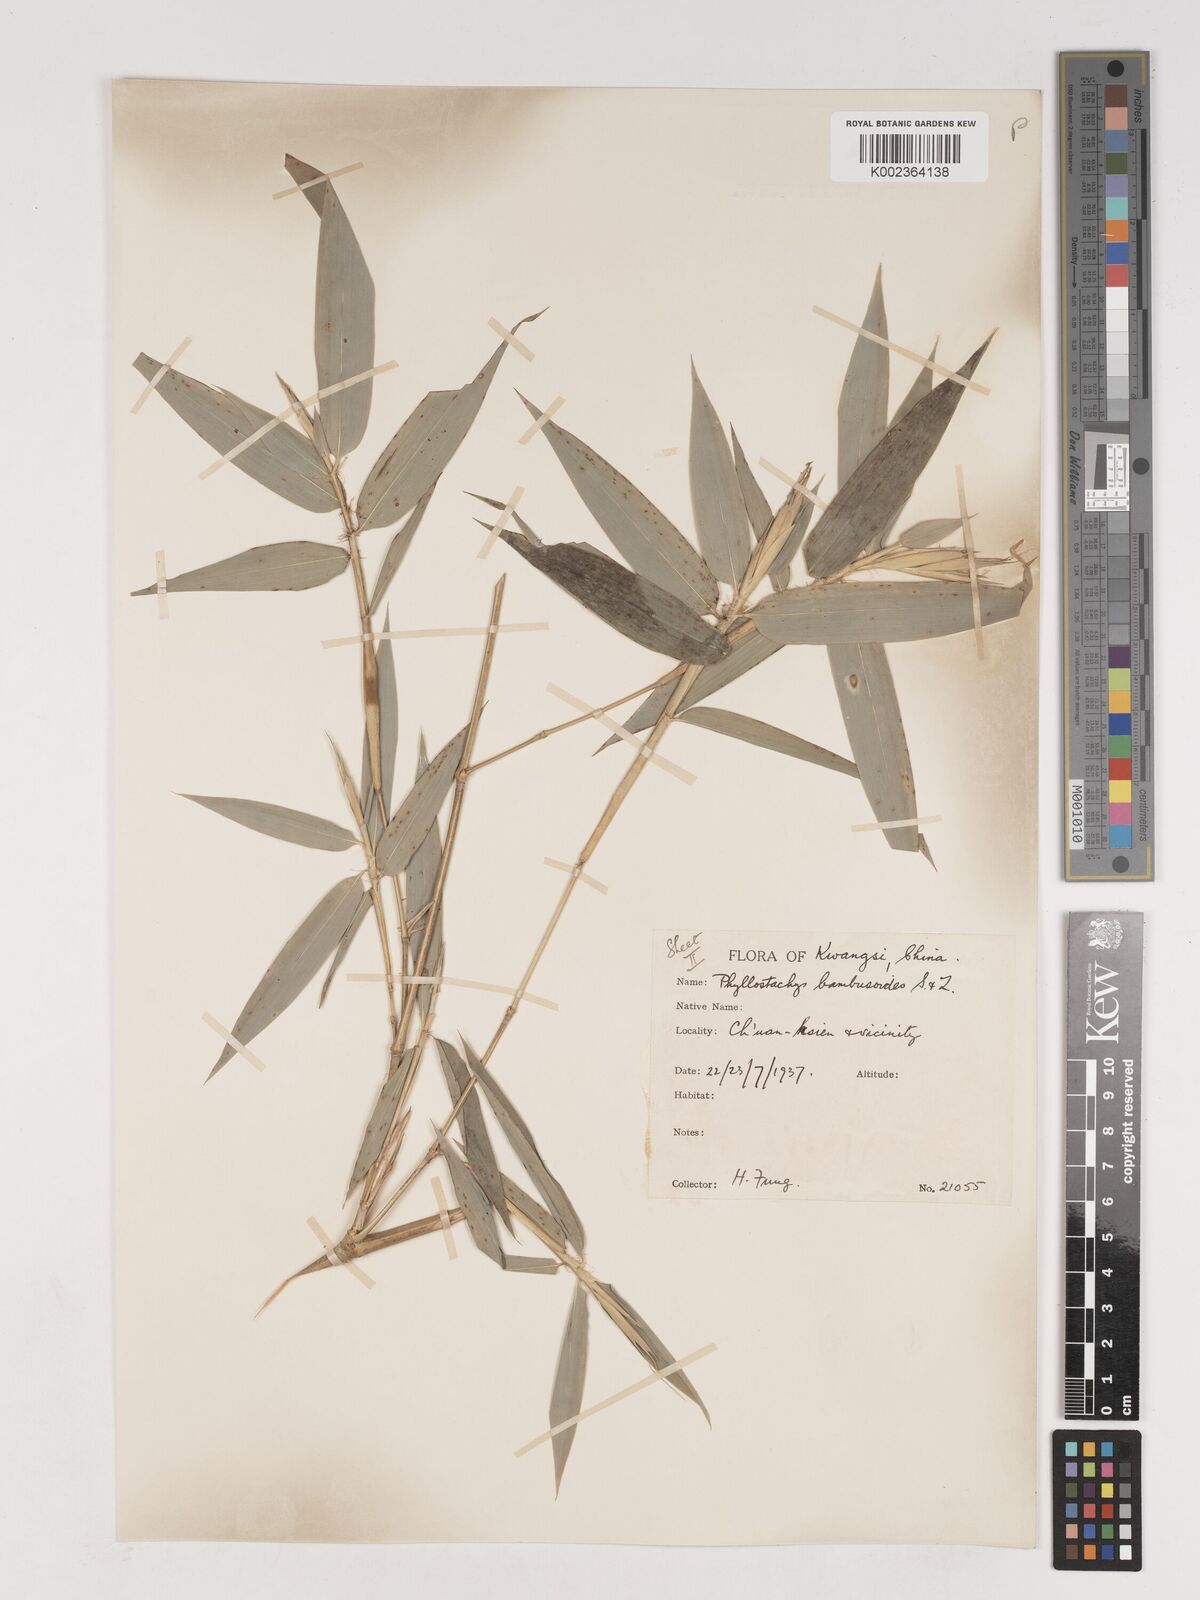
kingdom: Plantae
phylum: Tracheophyta
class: Liliopsida
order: Poales
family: Poaceae
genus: Phyllostachys
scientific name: Phyllostachys reticulata
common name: Bamboo
